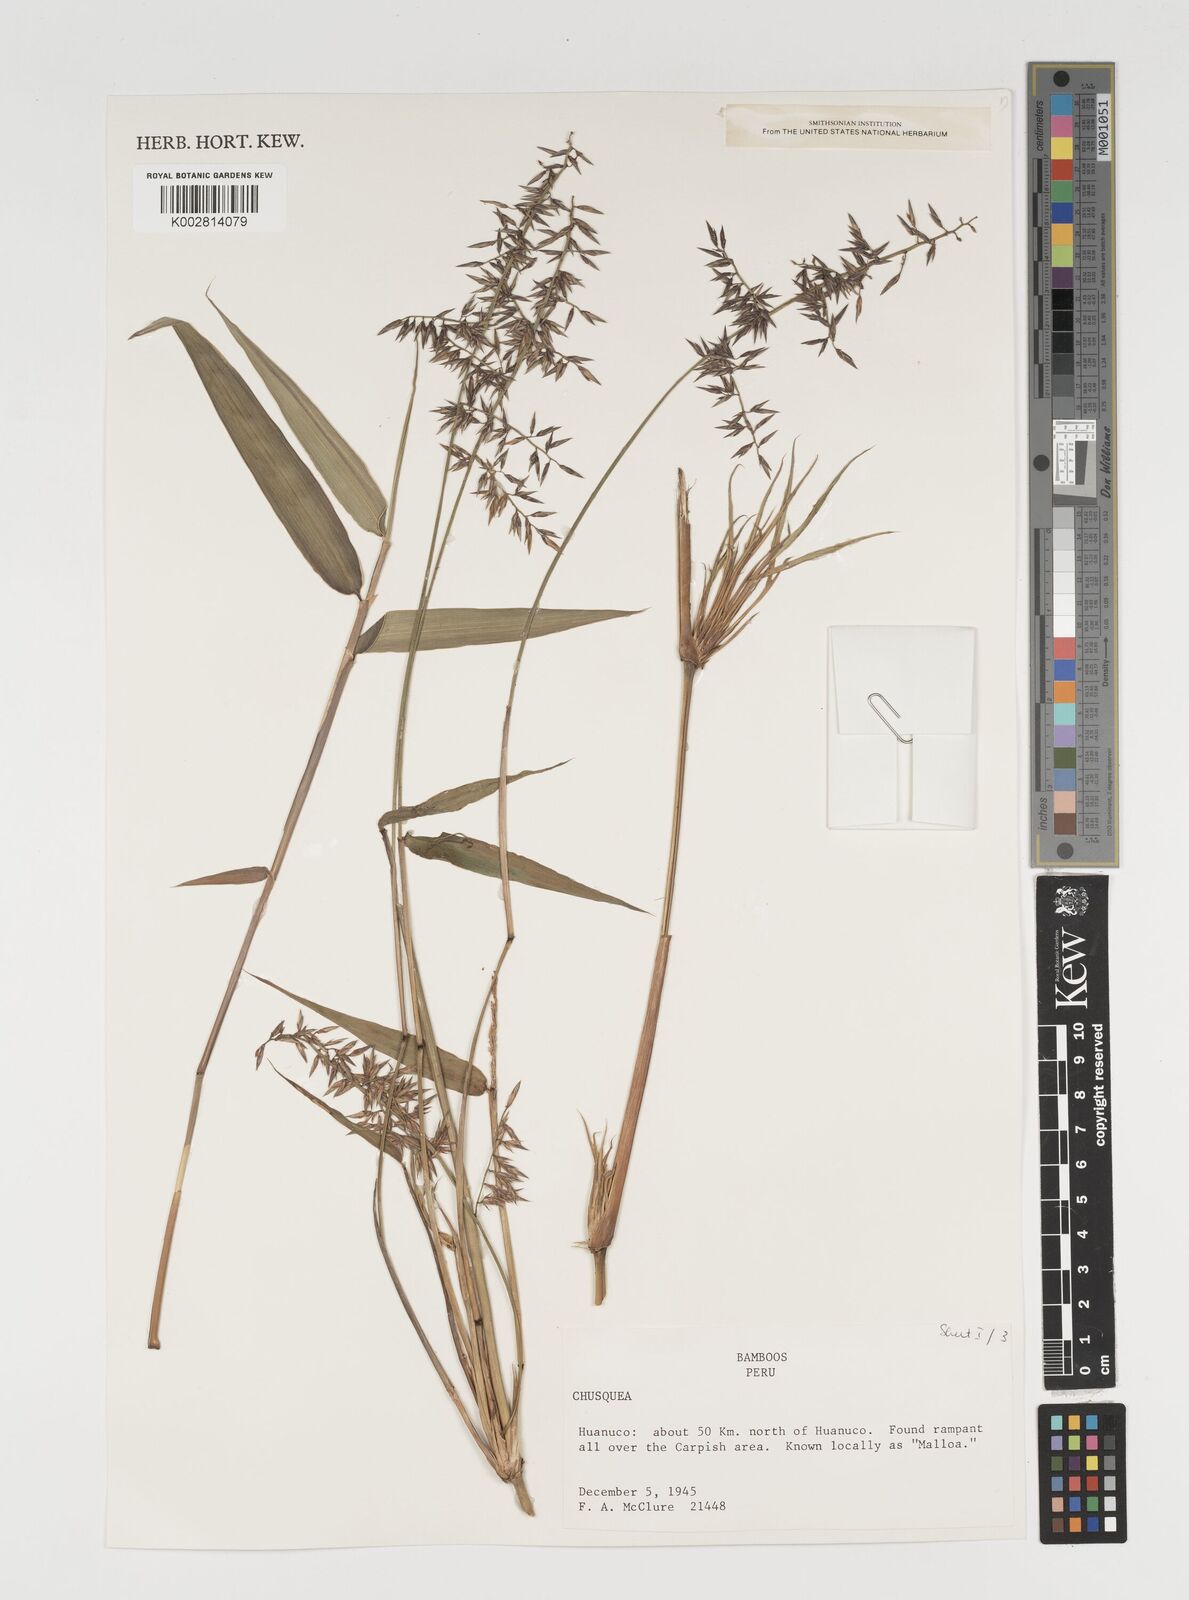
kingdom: Plantae
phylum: Tracheophyta
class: Liliopsida
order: Poales
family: Poaceae
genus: Chusquea
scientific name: Chusquea
